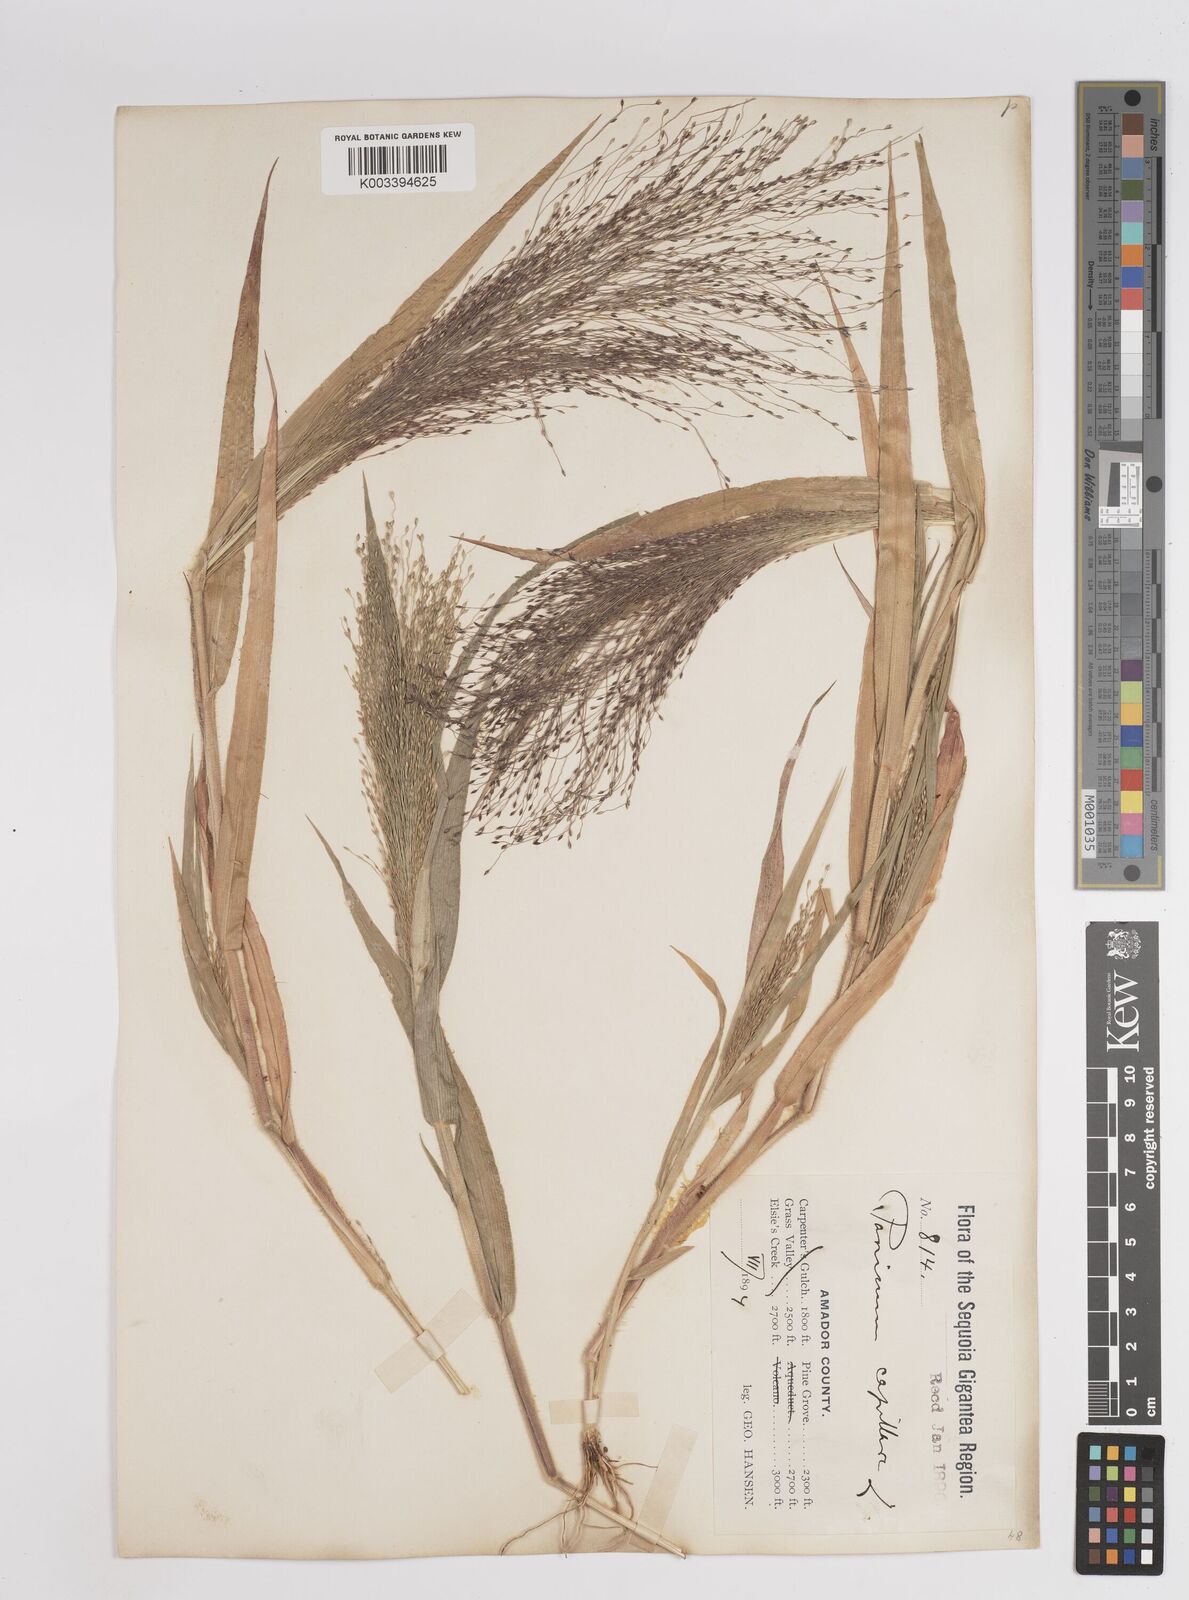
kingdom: Plantae
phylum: Tracheophyta
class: Liliopsida
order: Poales
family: Poaceae
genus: Panicum
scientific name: Panicum capillare
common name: Witch-grass
